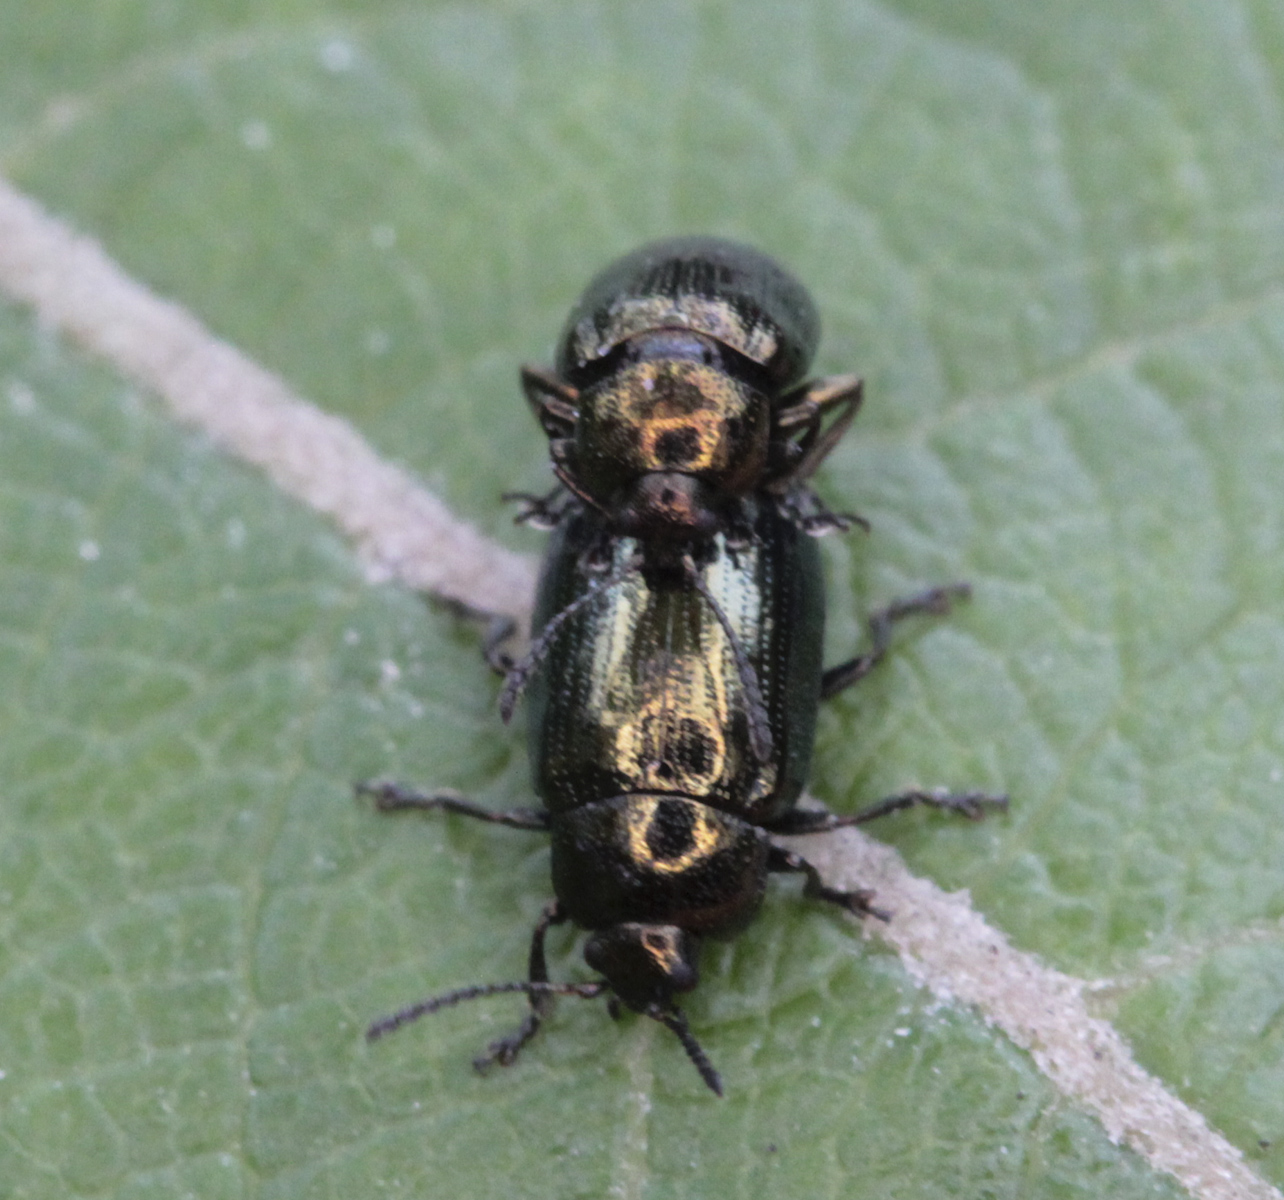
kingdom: Animalia
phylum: Arthropoda
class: Insecta
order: Coleoptera
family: Chrysomelidae
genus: Phratora
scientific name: Phratora
